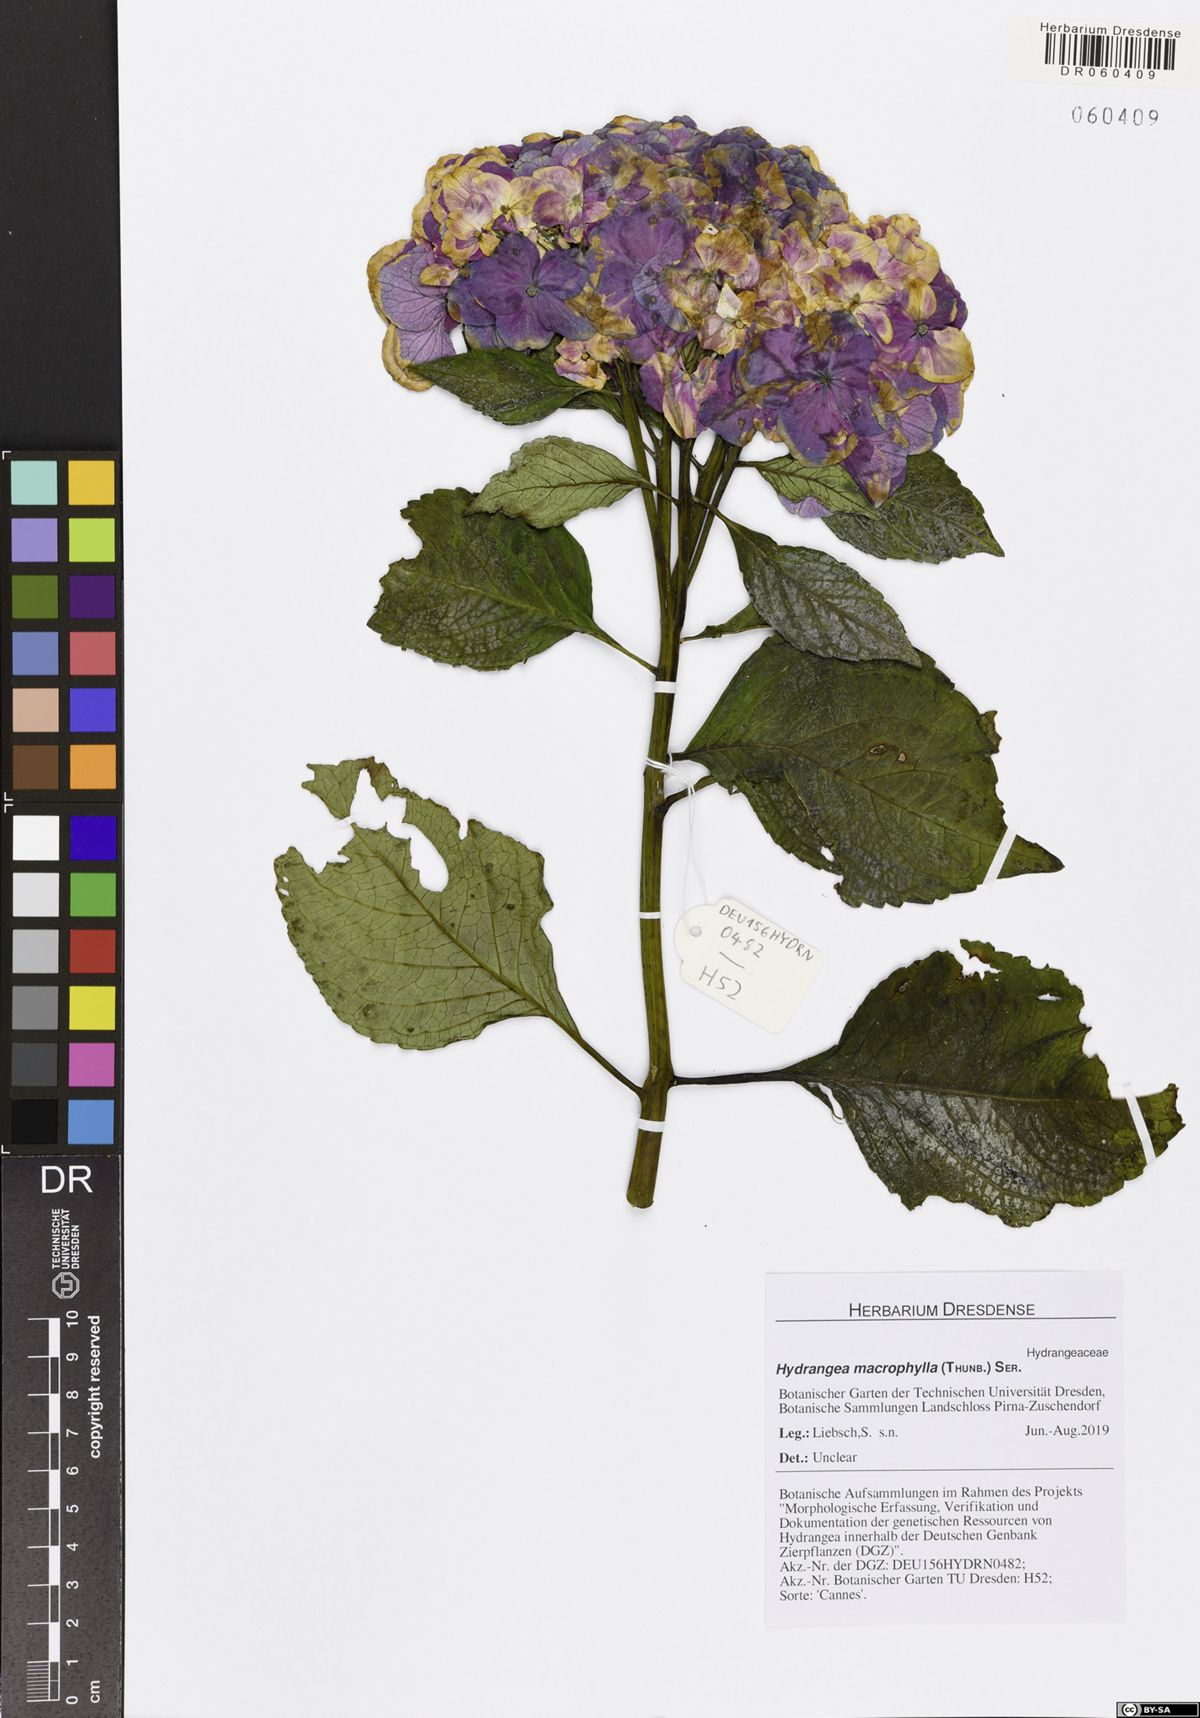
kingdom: Plantae
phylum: Tracheophyta
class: Magnoliopsida
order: Cornales
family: Hydrangeaceae
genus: Hydrangea
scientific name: Hydrangea macrophylla
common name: Hydrangea
